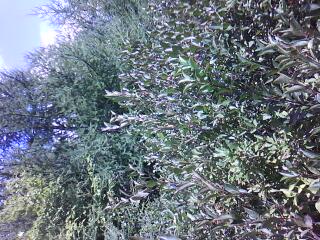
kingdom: Plantae
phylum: Tracheophyta
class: Magnoliopsida
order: Asterales
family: Asteraceae
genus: Symphyotrichum
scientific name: Symphyotrichum boreale
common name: Northern bog aster
